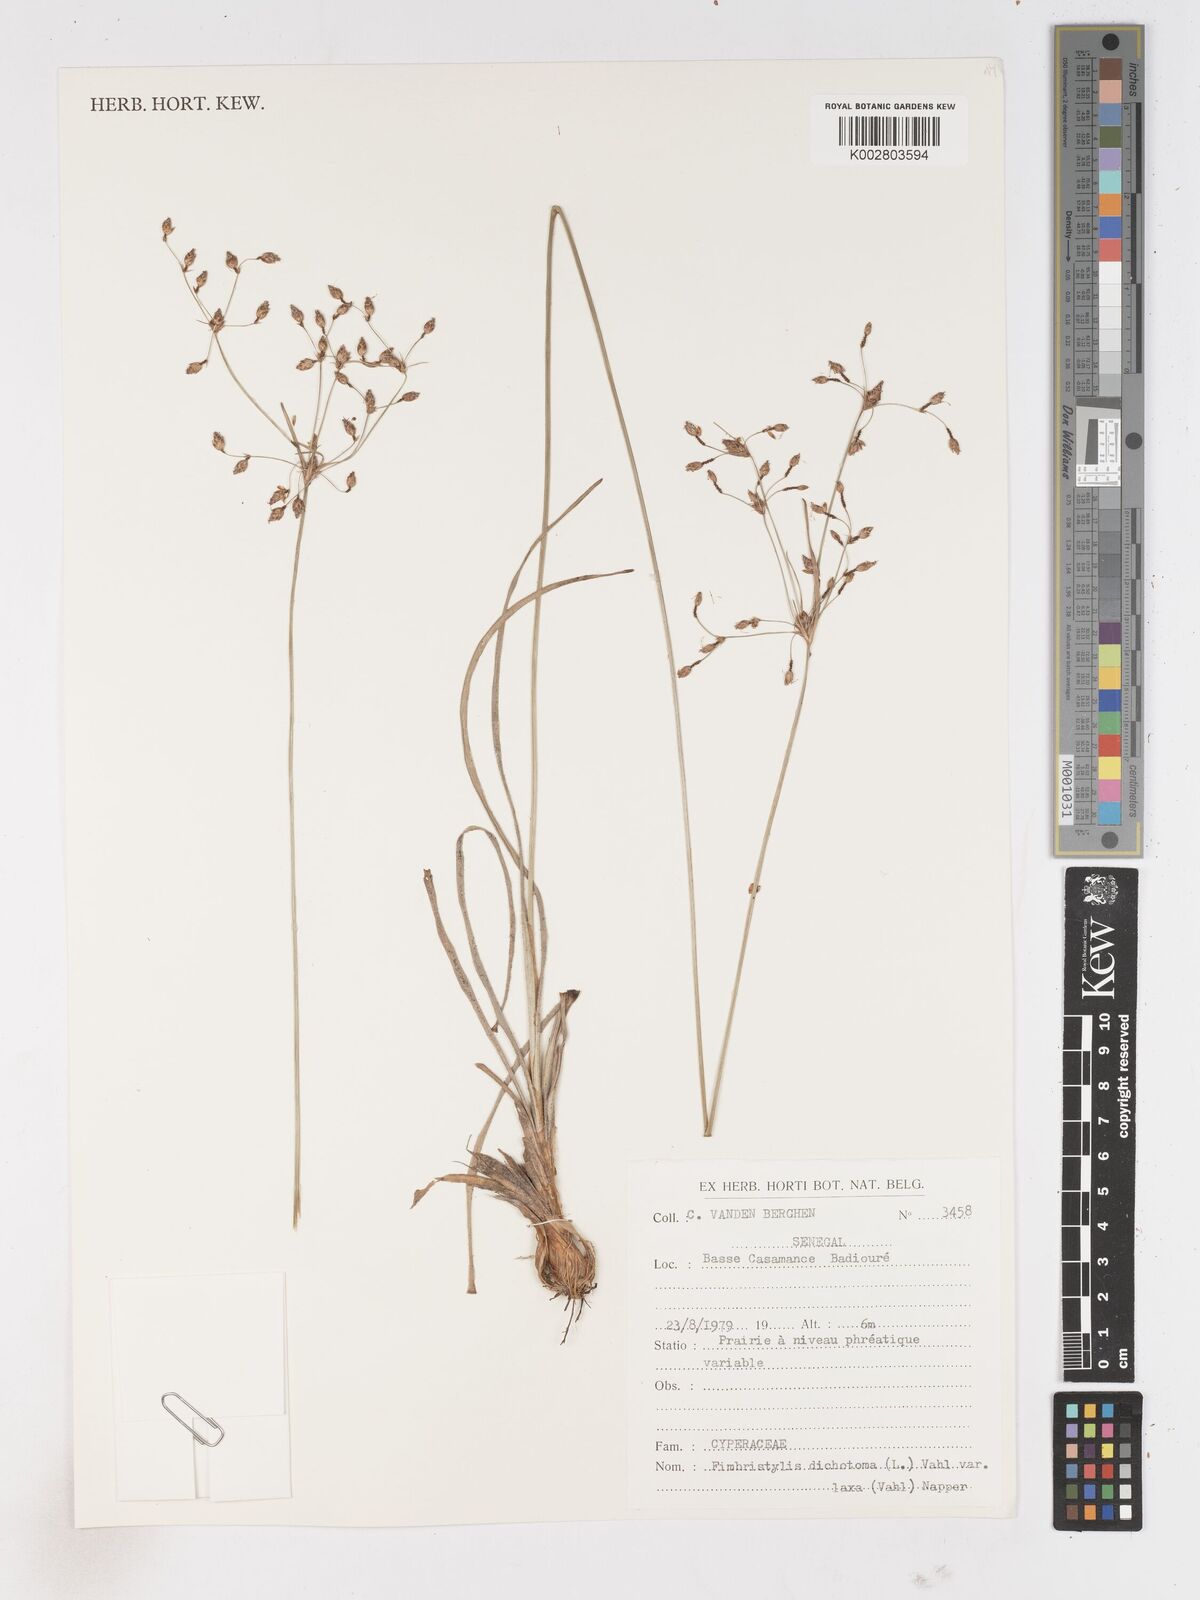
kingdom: Plantae
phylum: Tracheophyta
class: Liliopsida
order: Poales
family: Cyperaceae
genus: Fimbristylis
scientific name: Fimbristylis dichotoma
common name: Forked fimbry
